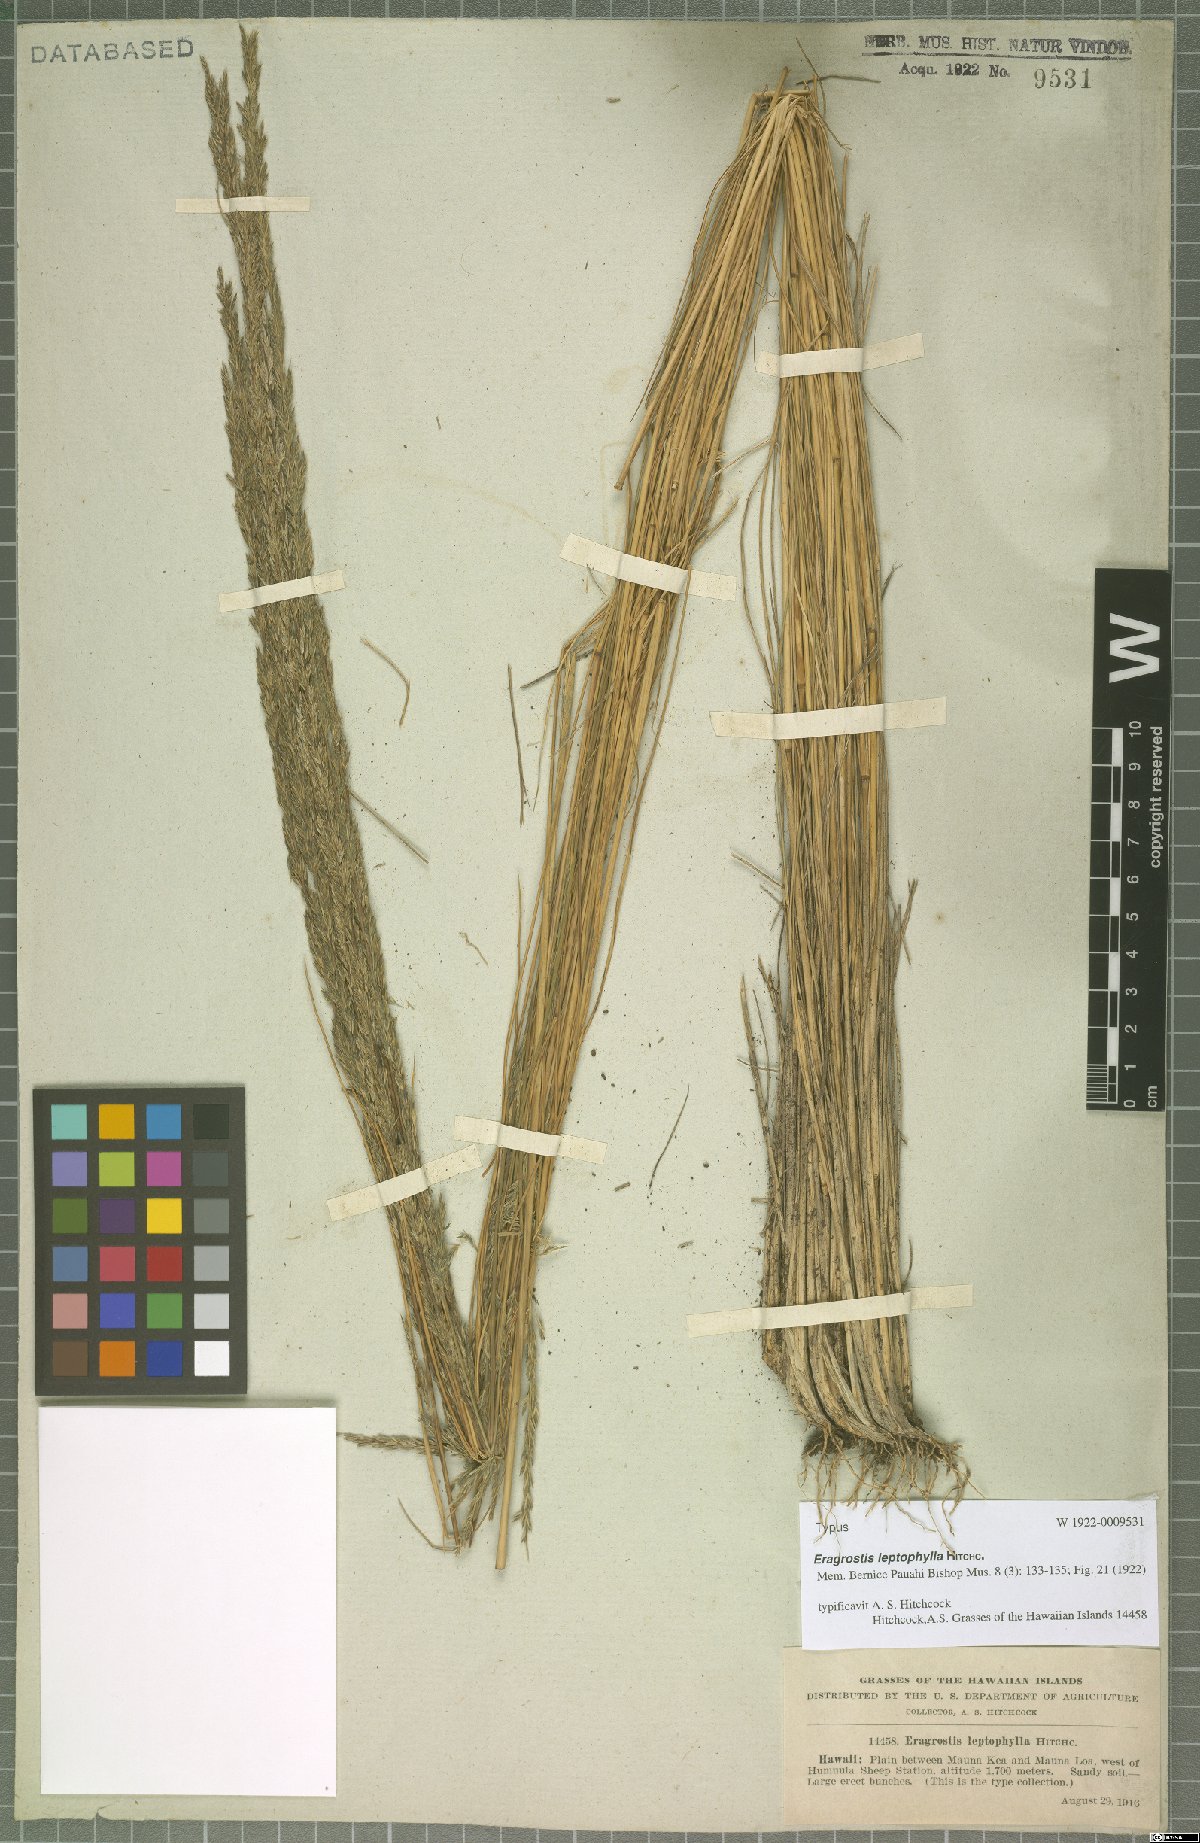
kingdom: Plantae
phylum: Tracheophyta
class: Liliopsida
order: Poales
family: Poaceae
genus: Eragrostis
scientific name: Eragrostis leptophylla
